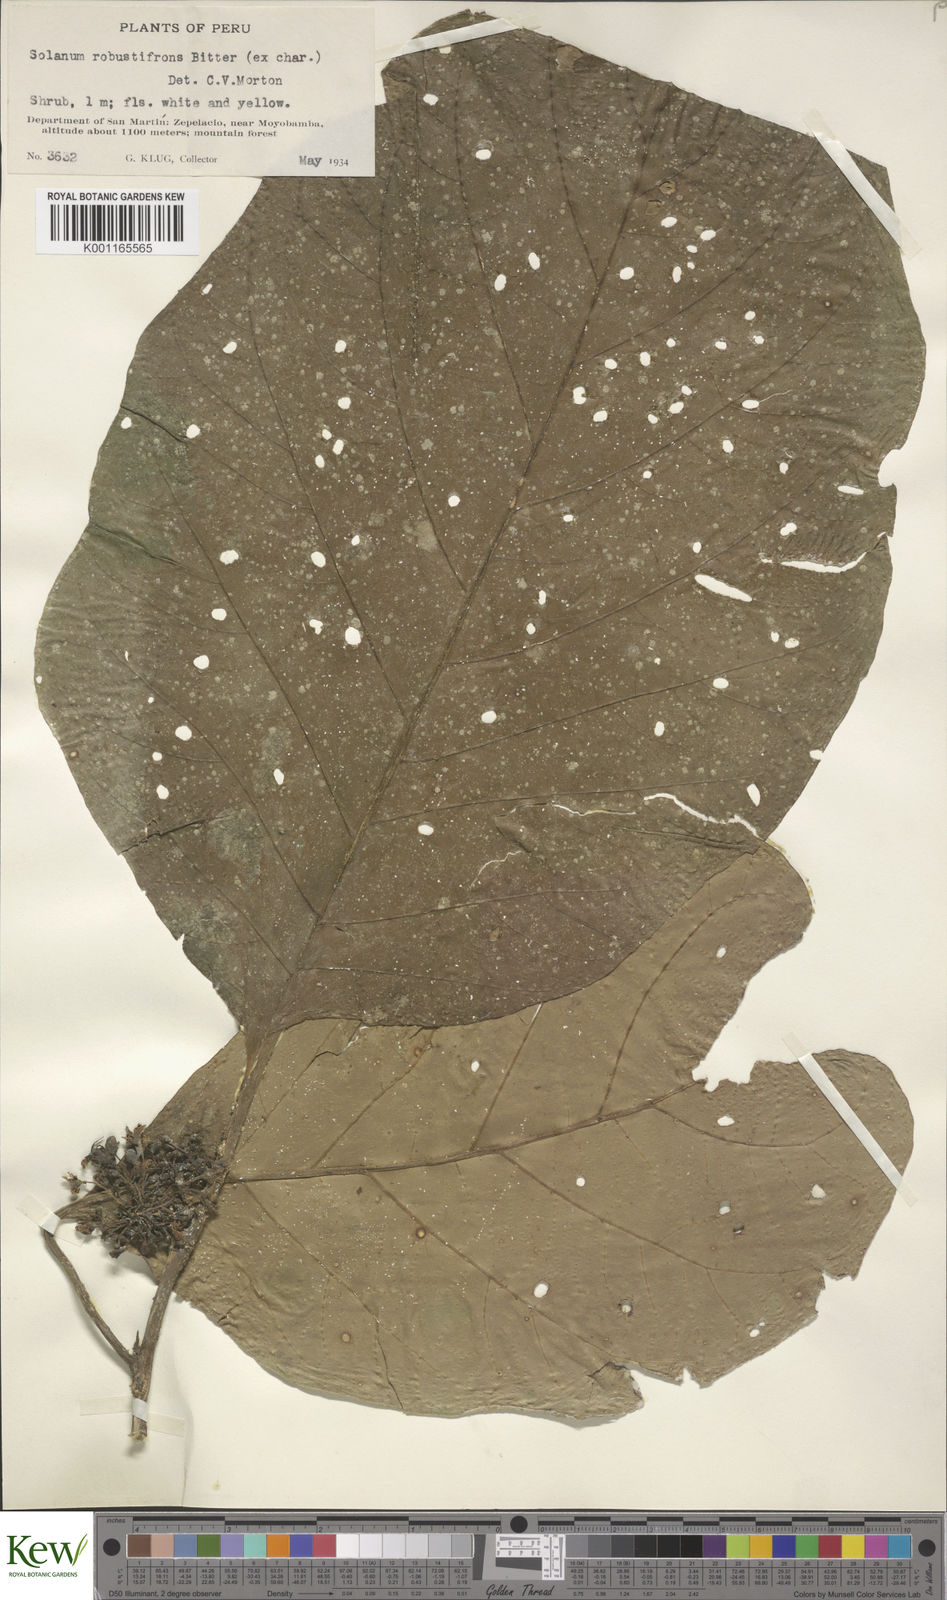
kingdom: Plantae
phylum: Tracheophyta
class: Magnoliopsida
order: Solanales
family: Solanaceae
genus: Solanum
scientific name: Solanum robustifrons
